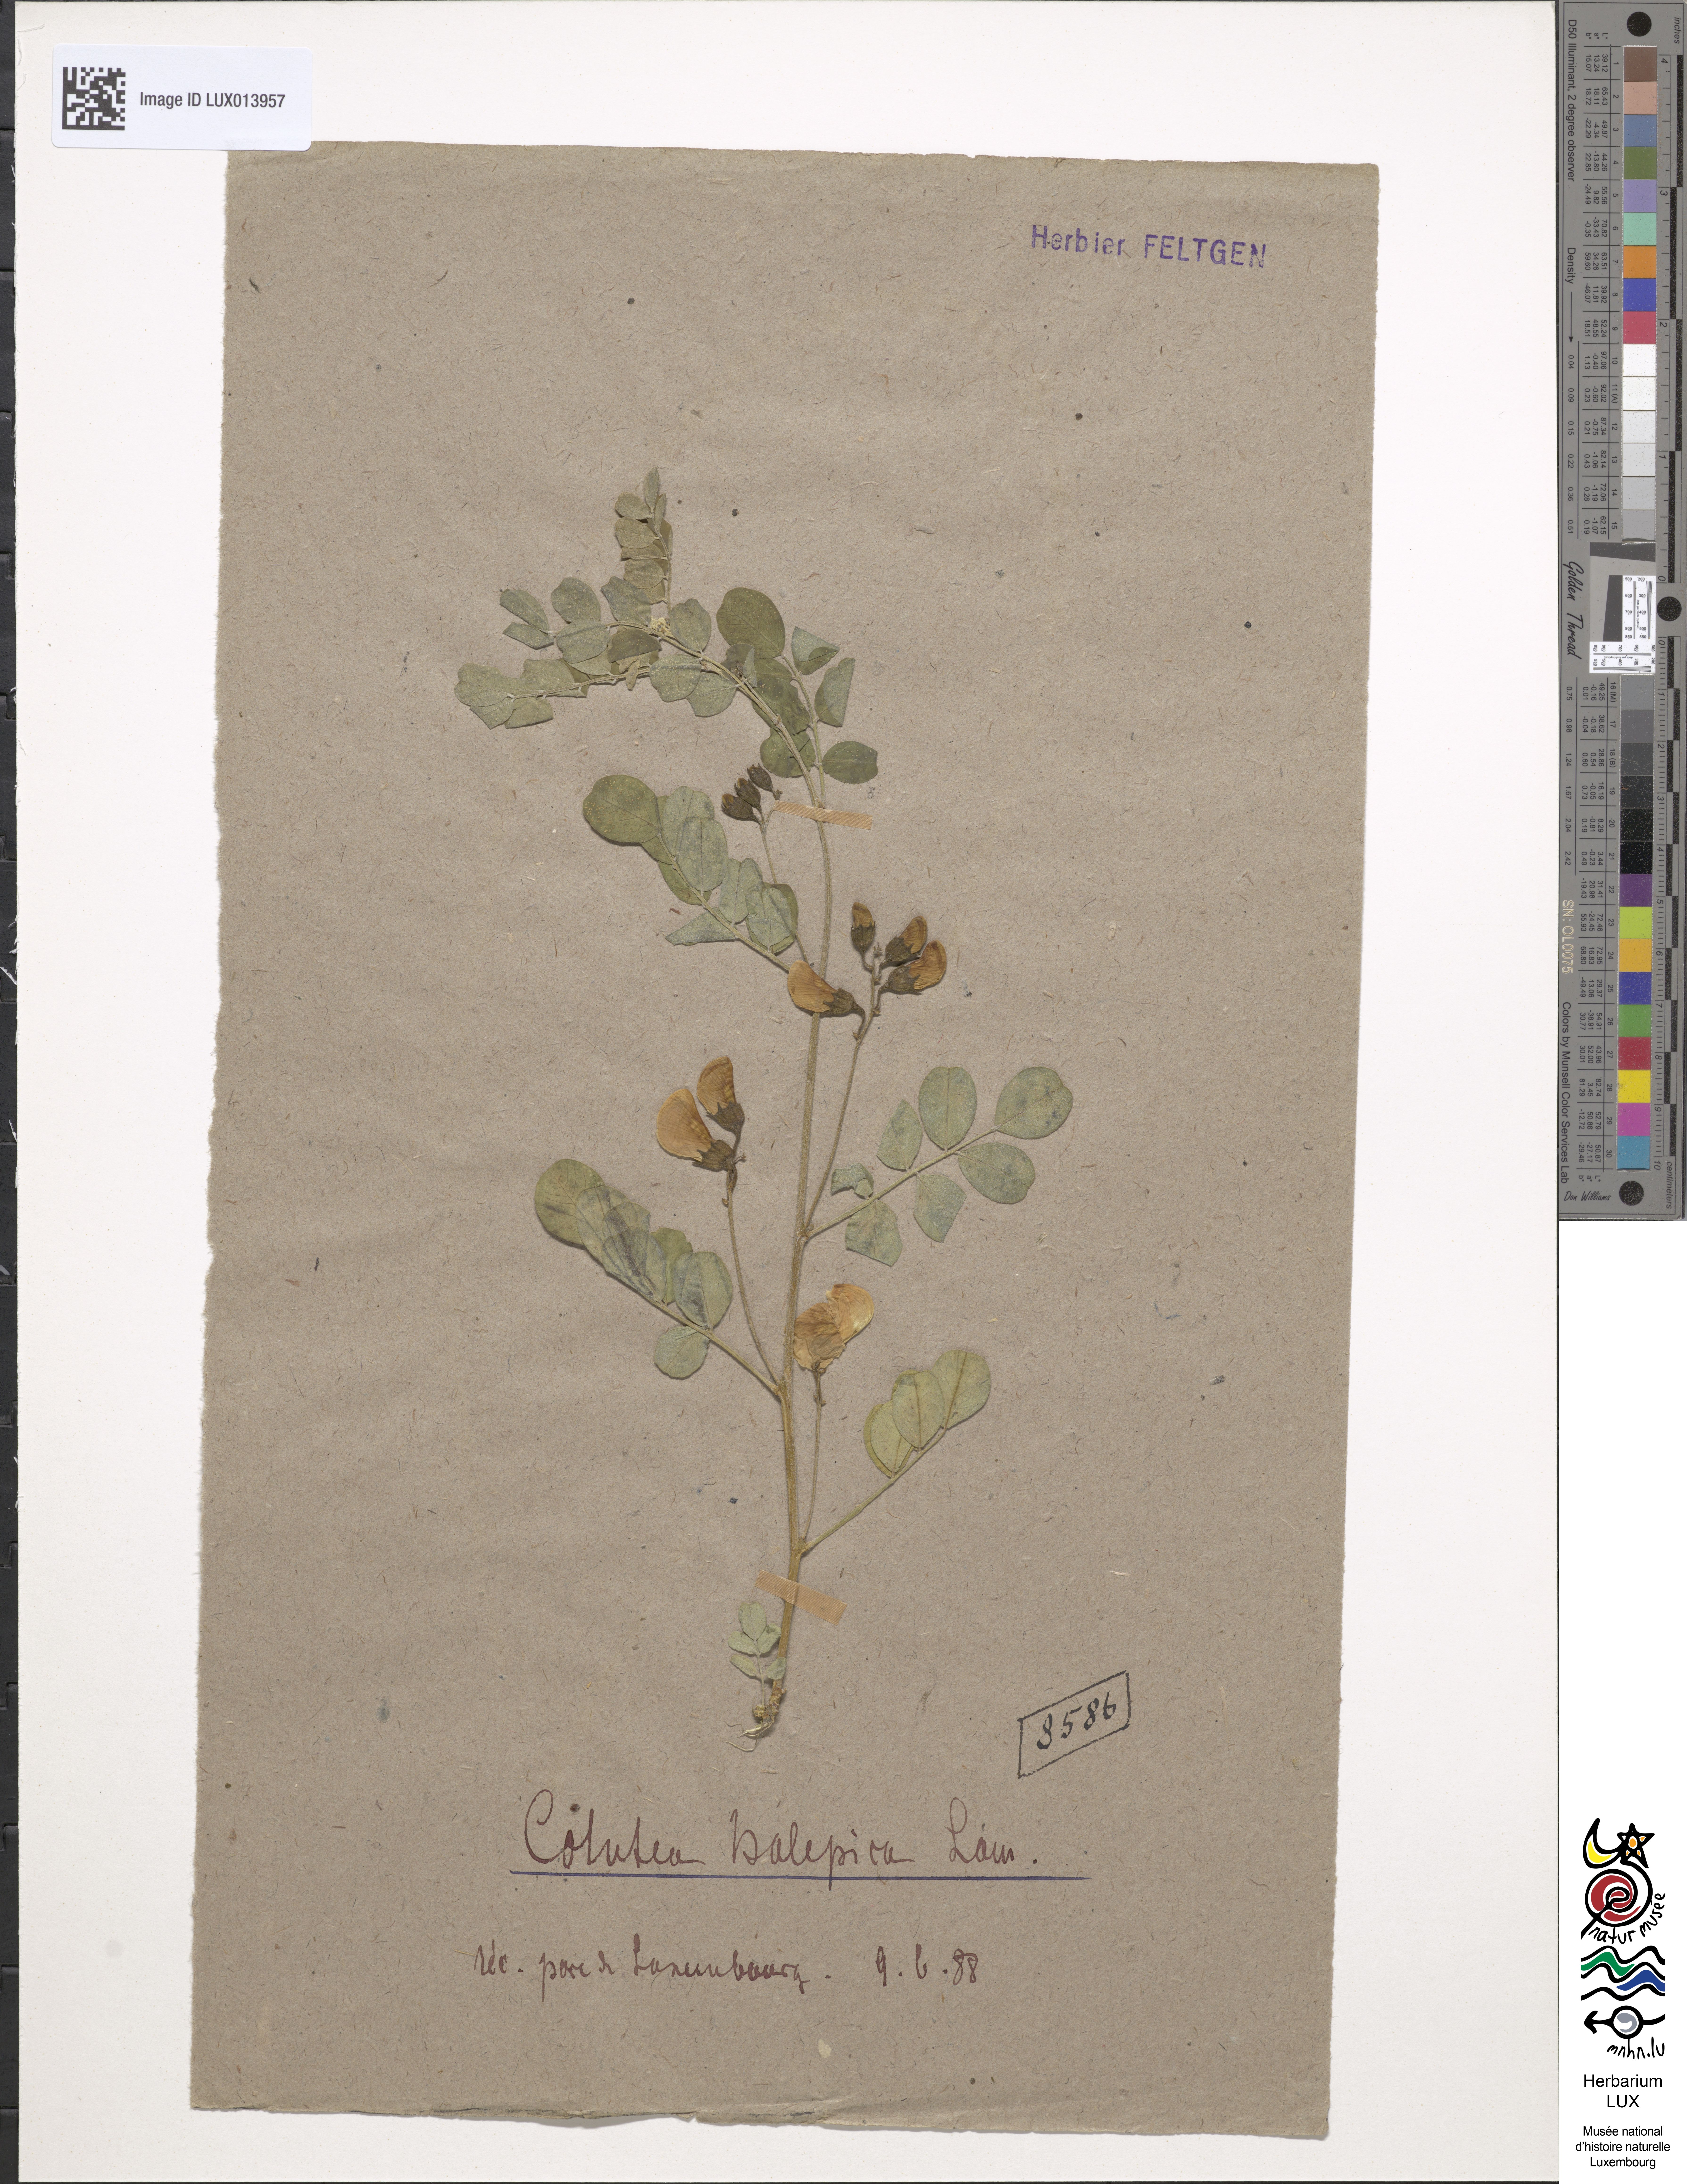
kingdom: Plantae
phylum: Tracheophyta
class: Magnoliopsida
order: Fabales
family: Fabaceae
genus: Colutea
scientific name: Colutea istria
